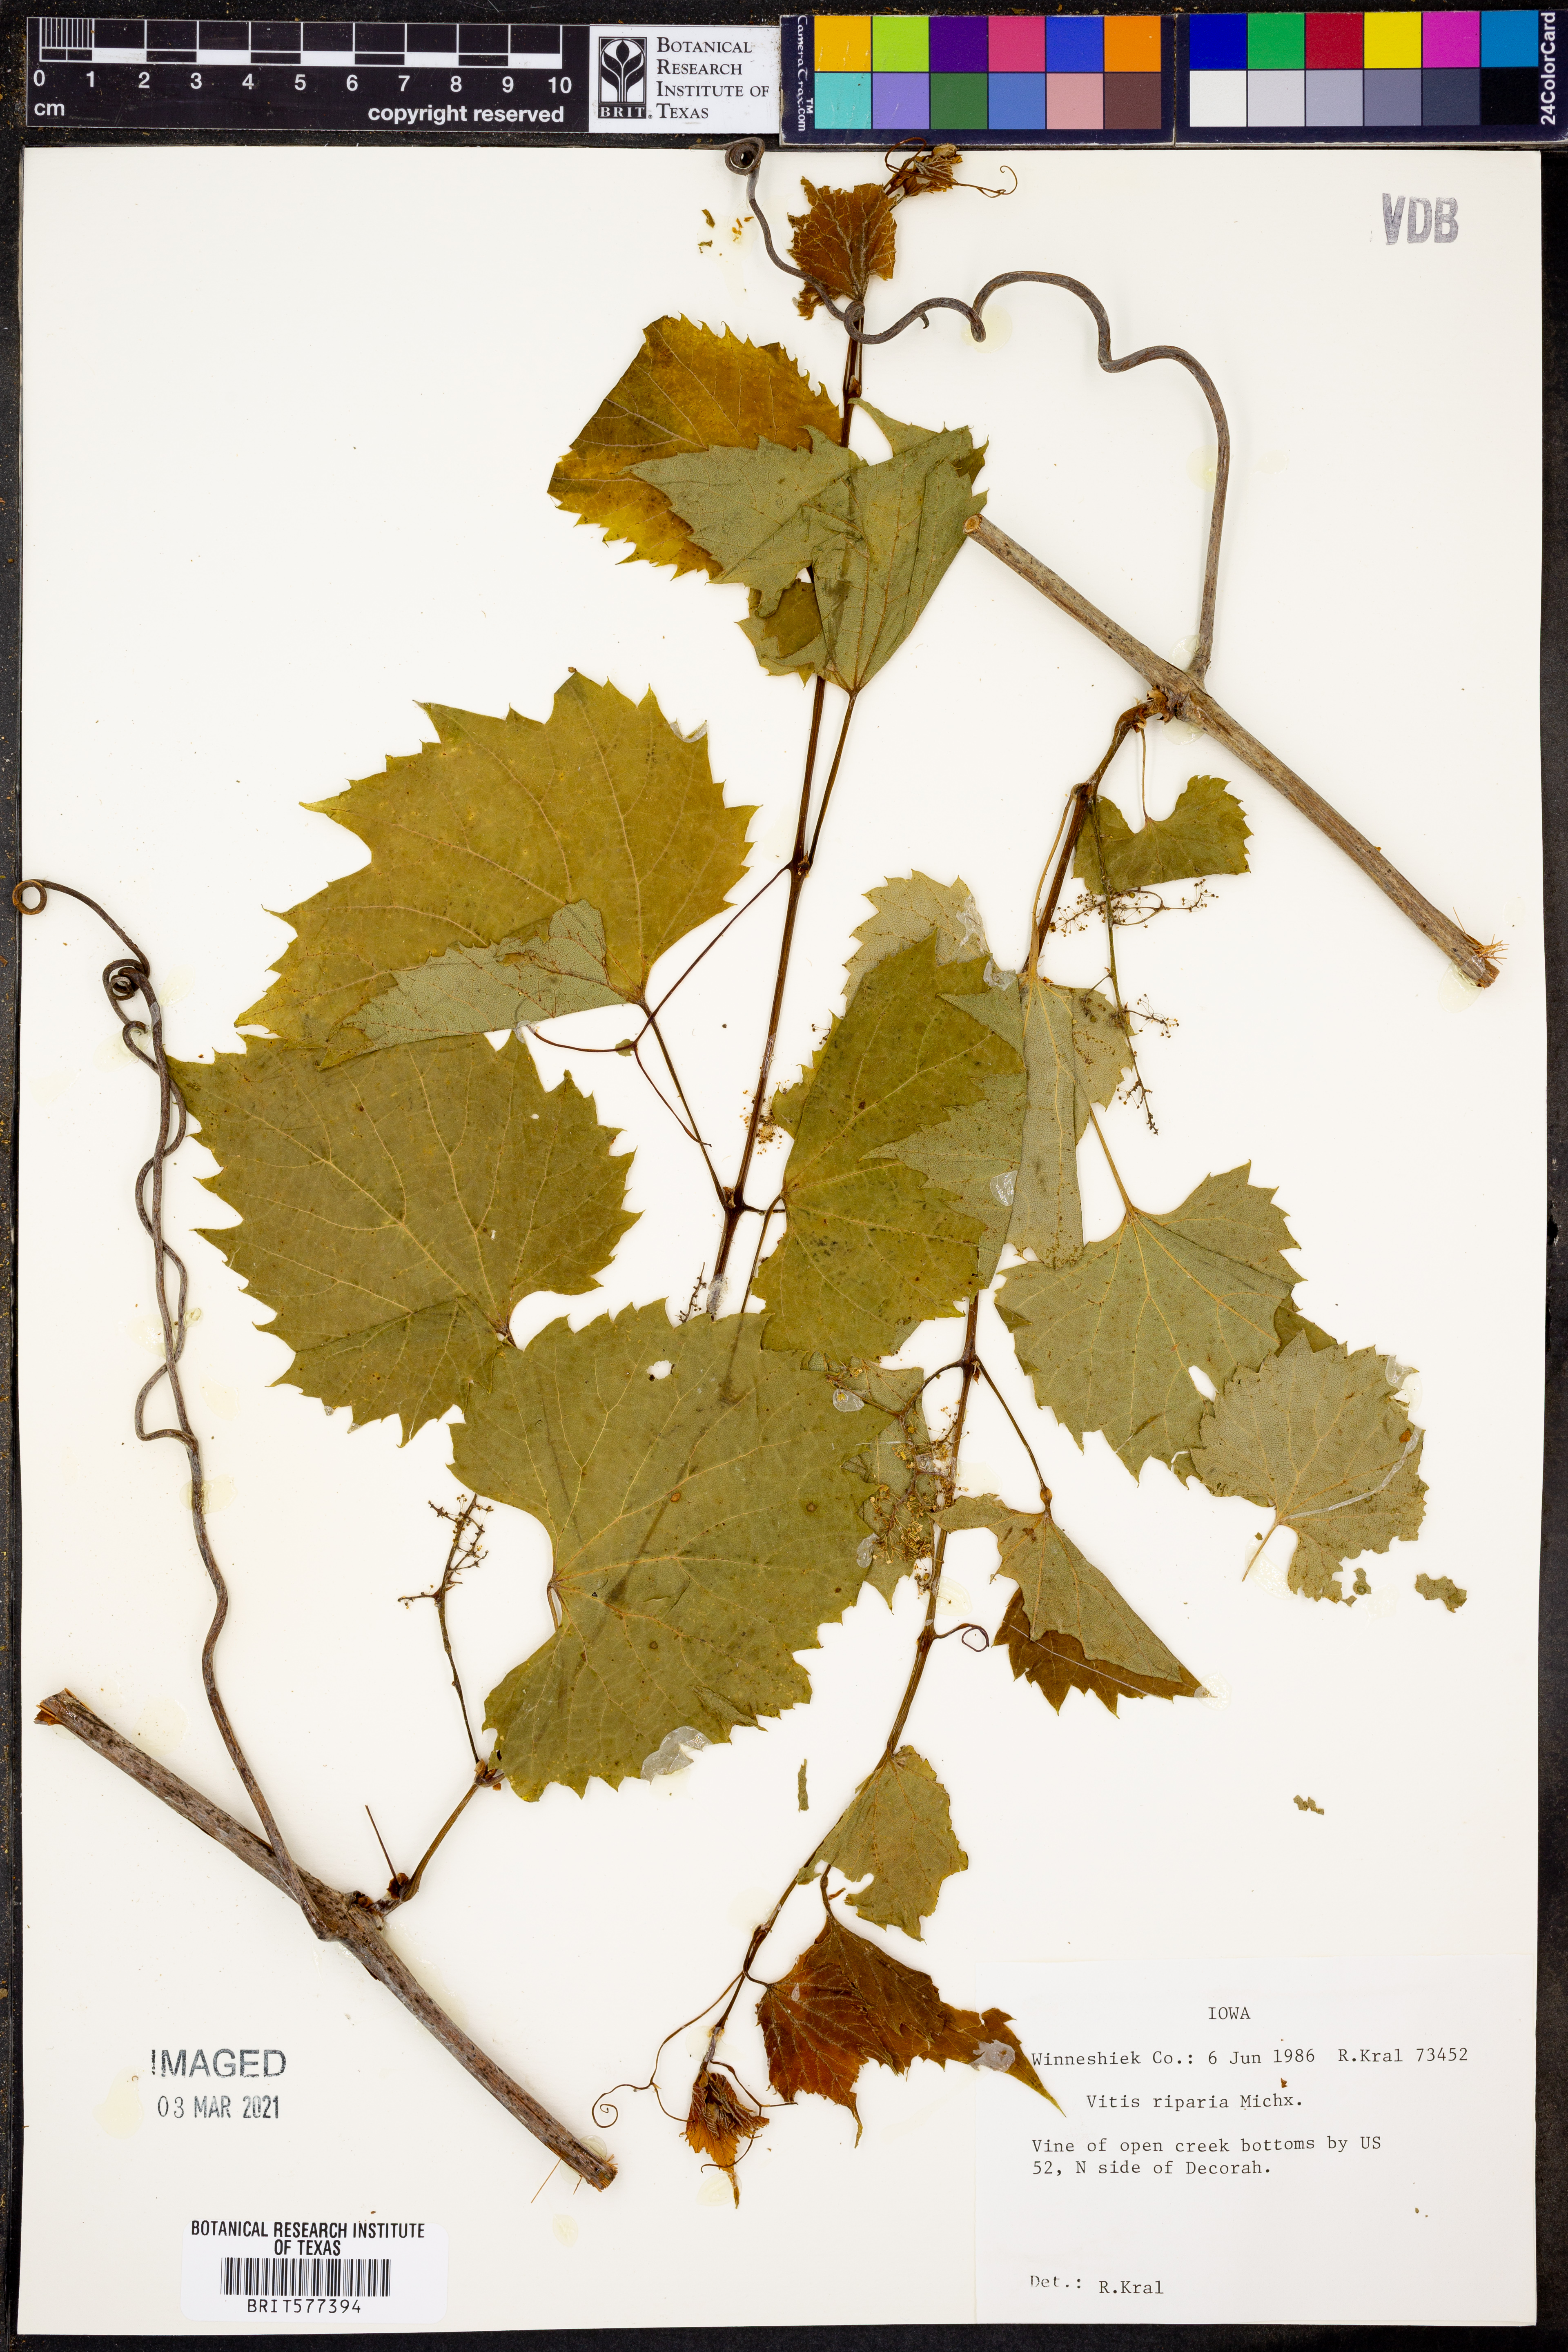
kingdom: Plantae
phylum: Tracheophyta
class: Magnoliopsida
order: Vitales
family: Vitaceae
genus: Vitis
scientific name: Vitis riparia
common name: Frost grape
